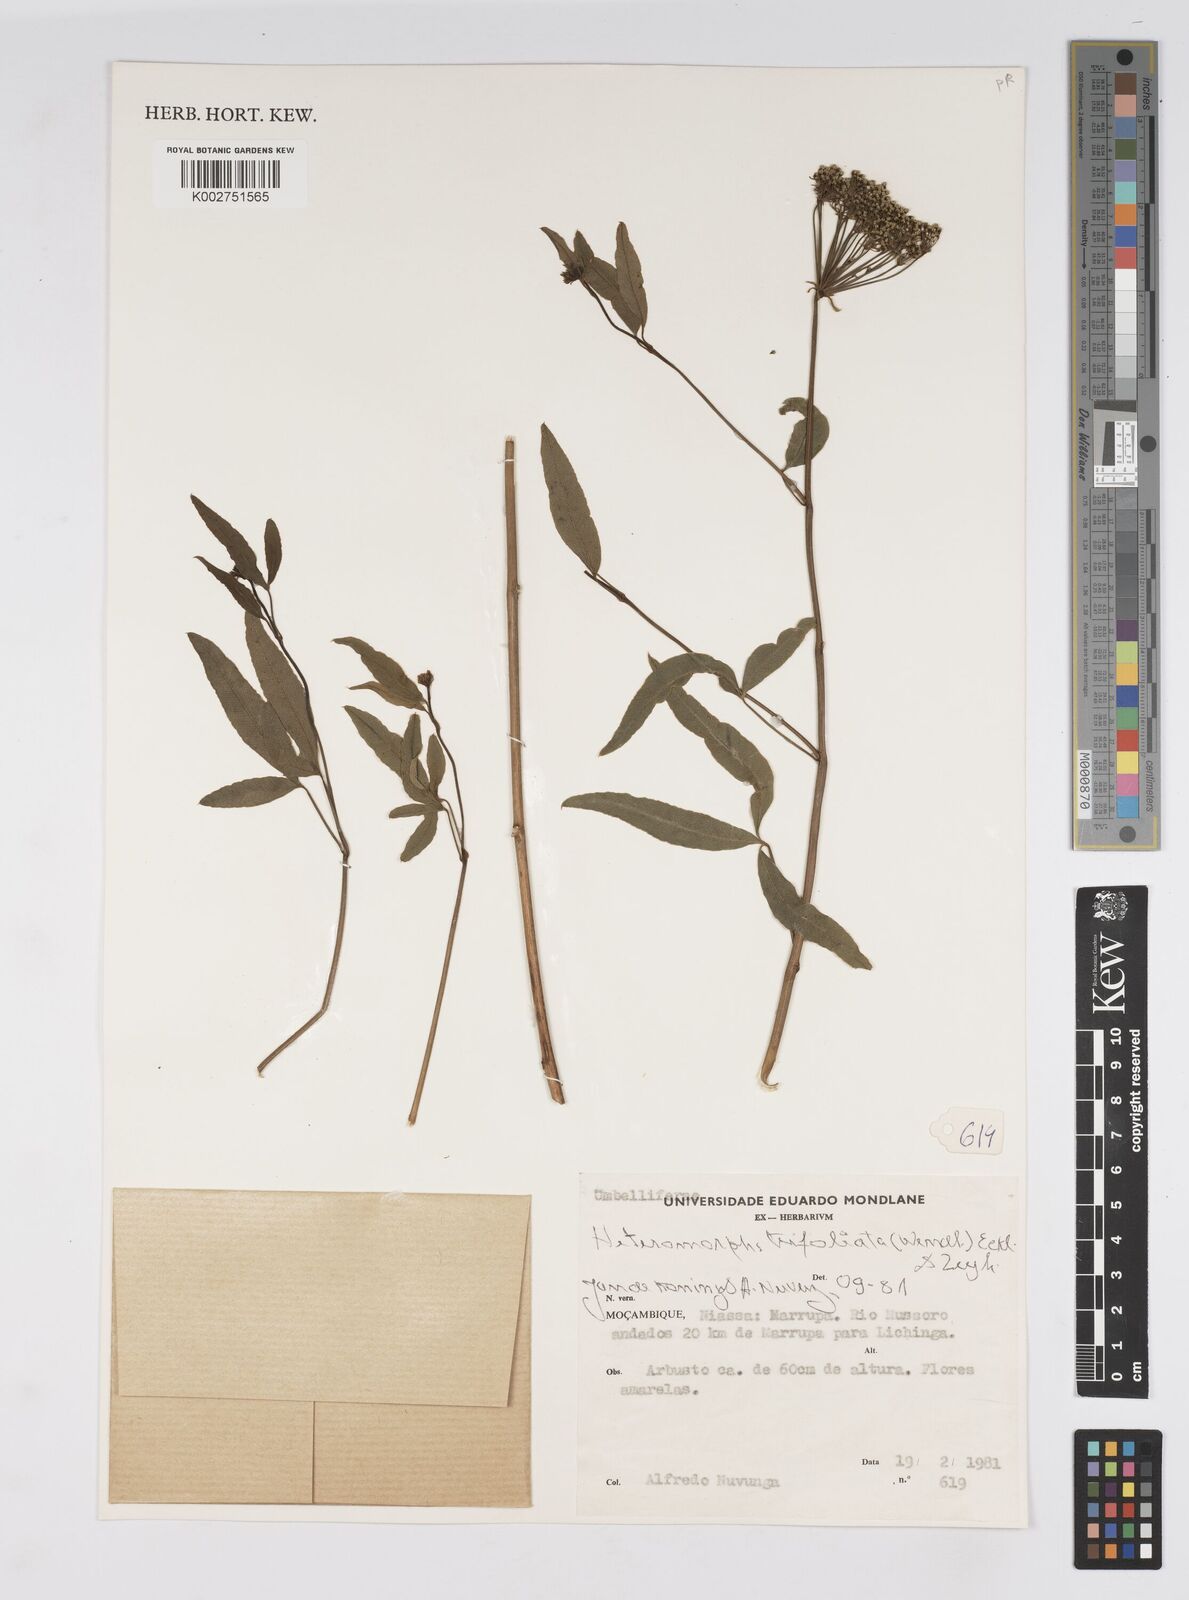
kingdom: Plantae
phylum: Tracheophyta
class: Magnoliopsida
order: Apiales
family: Apiaceae
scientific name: Apiaceae
